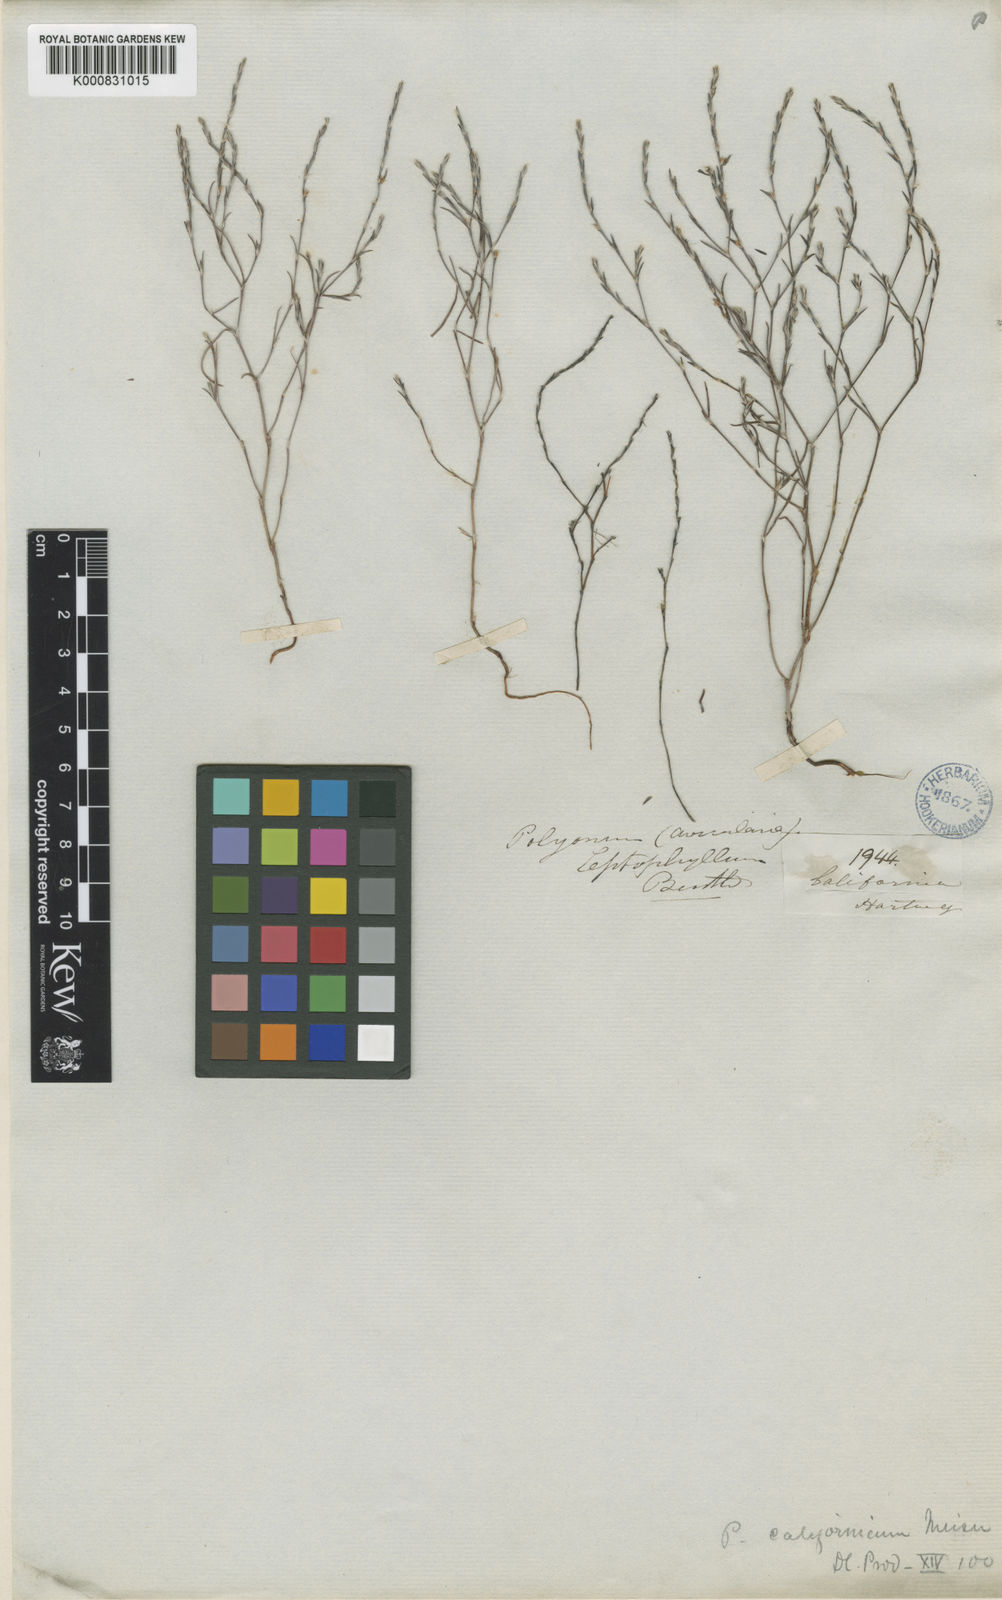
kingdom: Plantae
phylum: Tracheophyta
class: Magnoliopsida
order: Caryophyllales
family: Polygonaceae
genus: Polygonum
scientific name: Polygonum californicum
